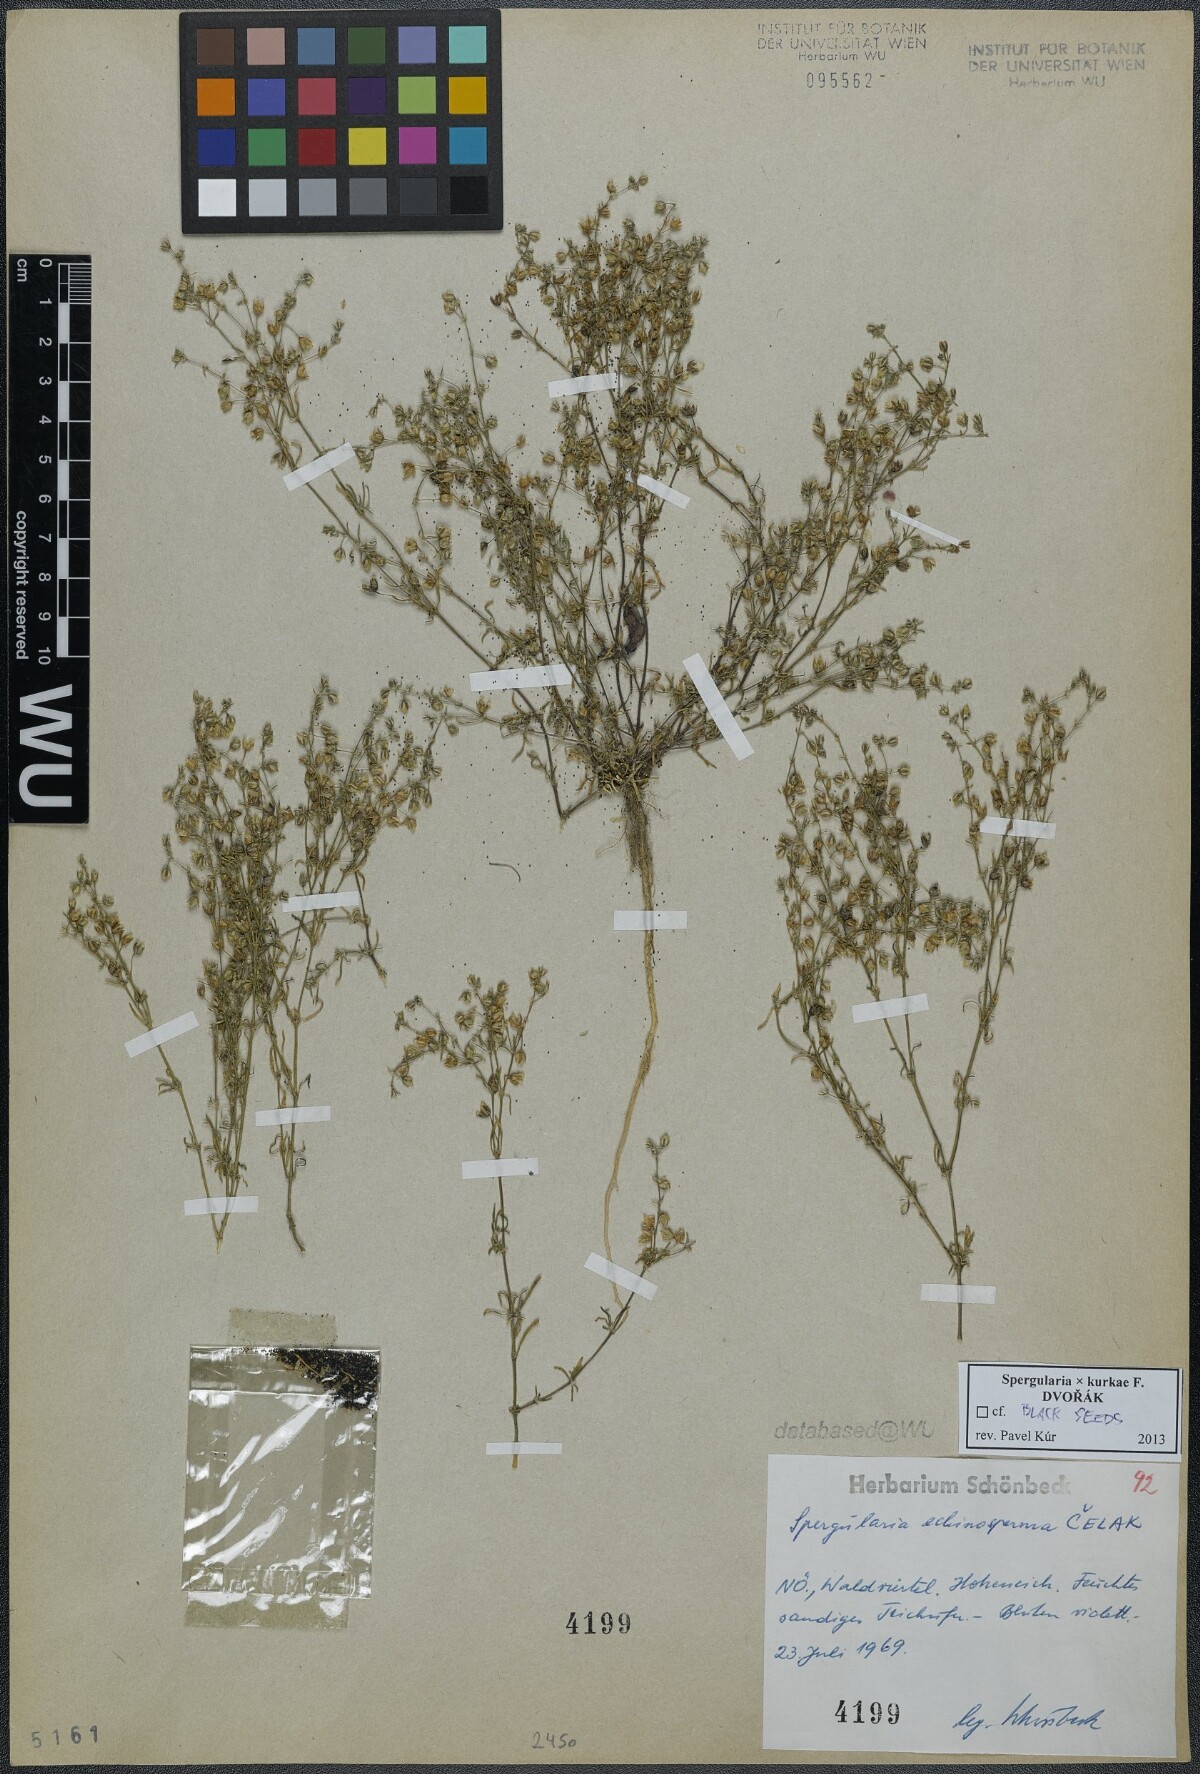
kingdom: Plantae
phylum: Tracheophyta
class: Magnoliopsida
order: Caryophyllales
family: Caryophyllaceae
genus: Spergularia
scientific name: Spergularia kurkae
